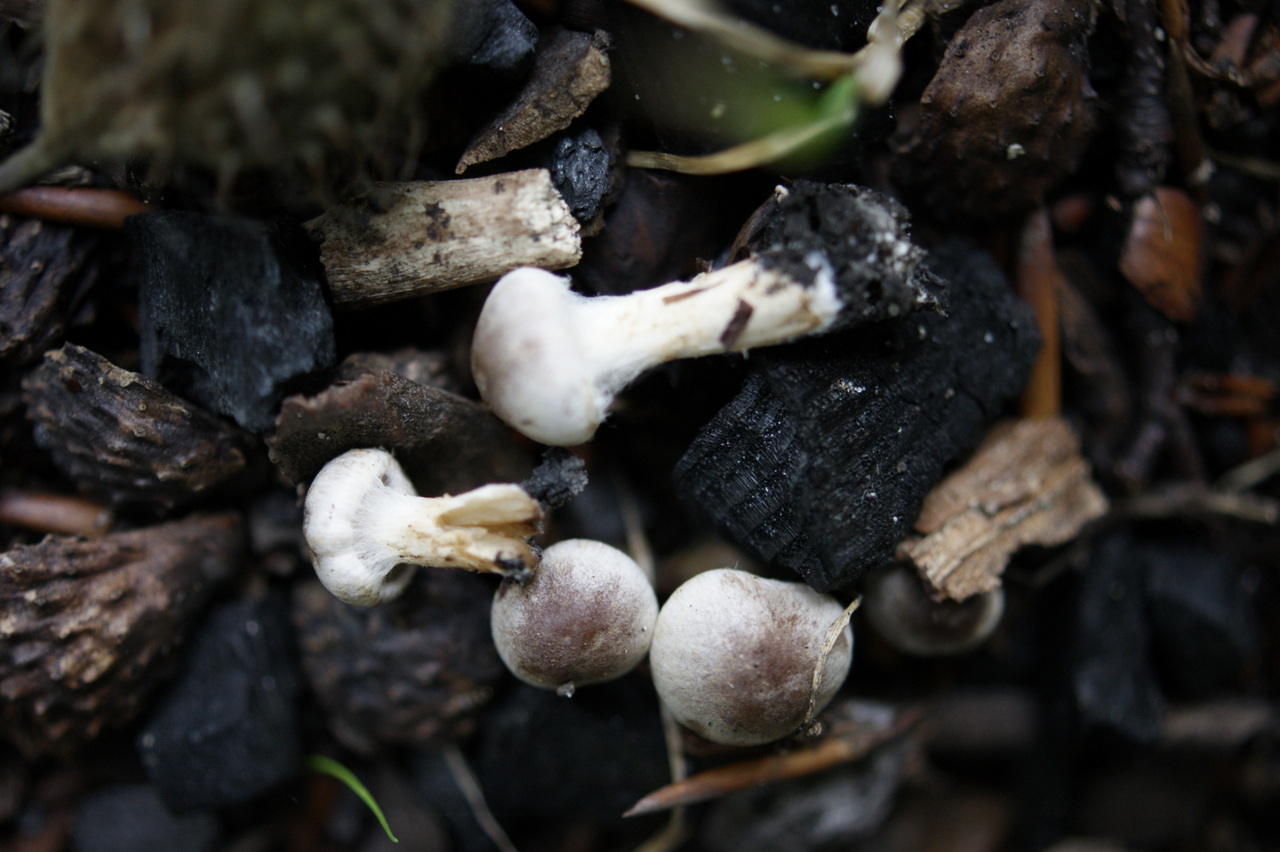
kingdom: Fungi
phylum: Basidiomycota
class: Agaricomycetes
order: Agaricales
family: Inocybaceae
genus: Inocybe
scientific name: Inocybe petiginosa
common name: liden trævlhat
